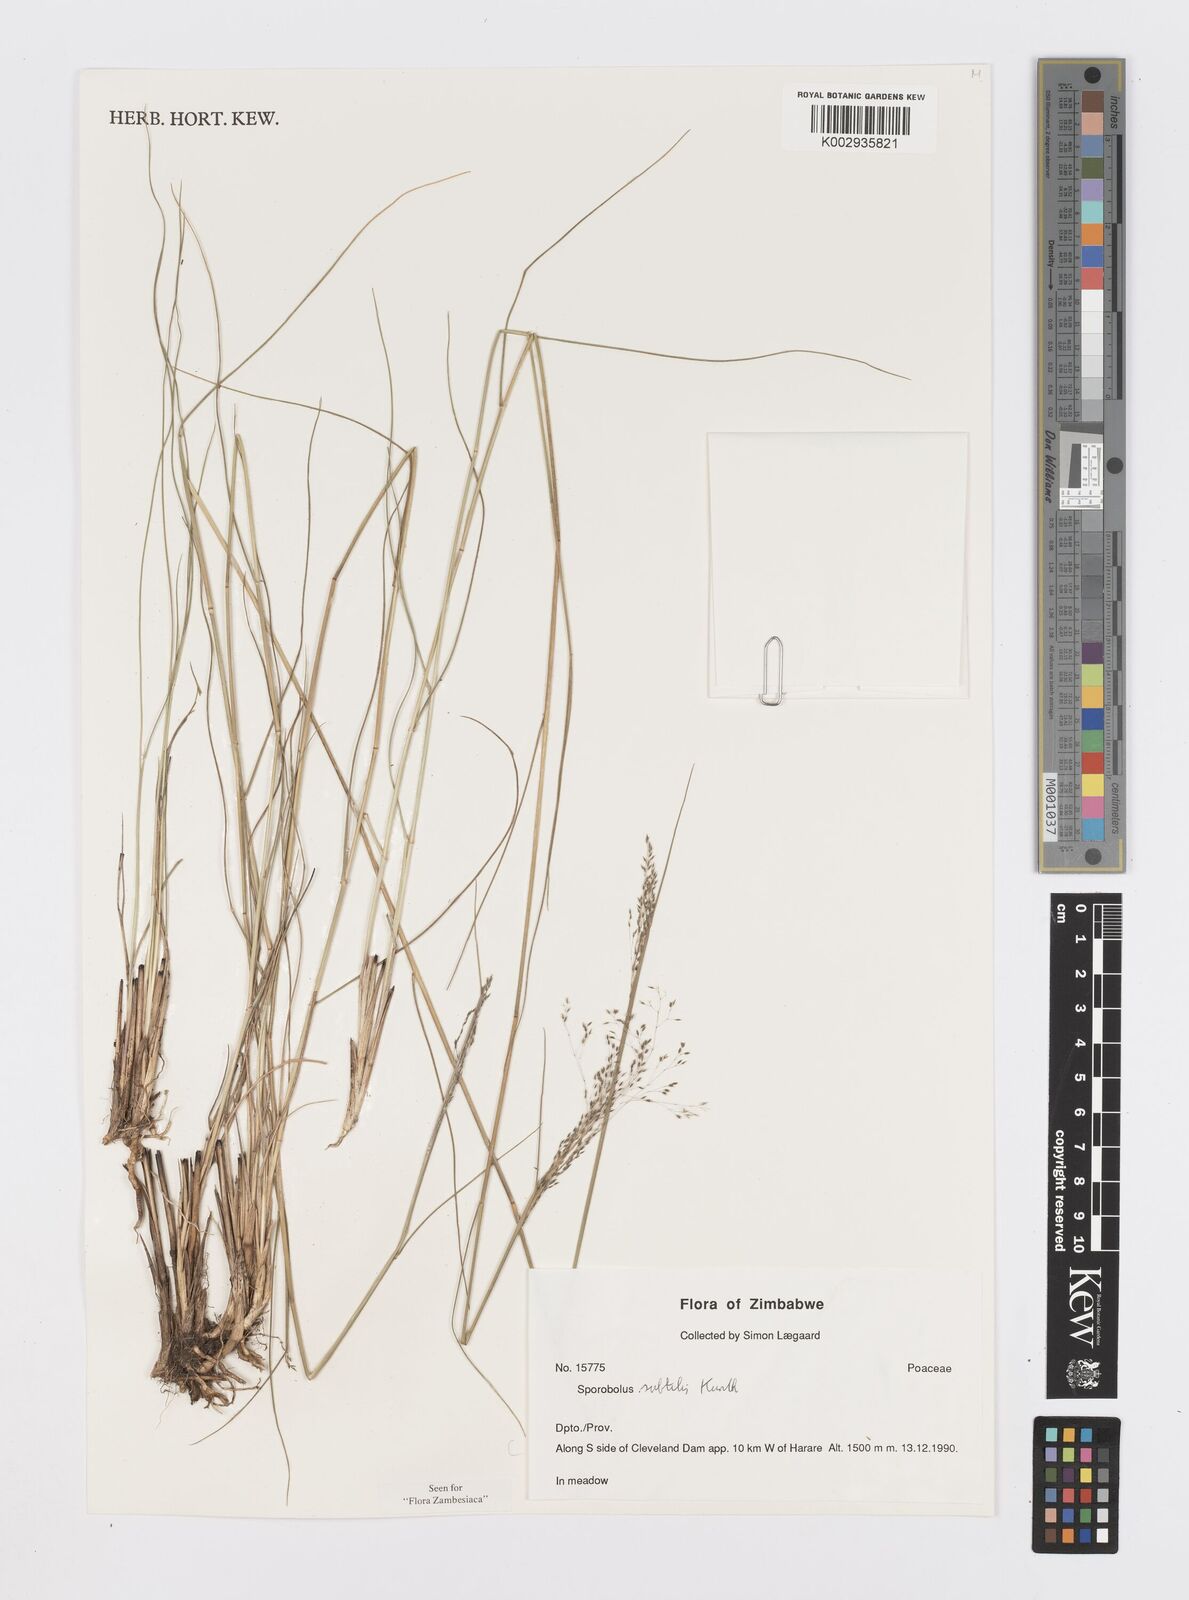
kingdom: Plantae
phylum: Tracheophyta
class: Liliopsida
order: Poales
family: Poaceae
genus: Sporobolus
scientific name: Sporobolus subtilis
